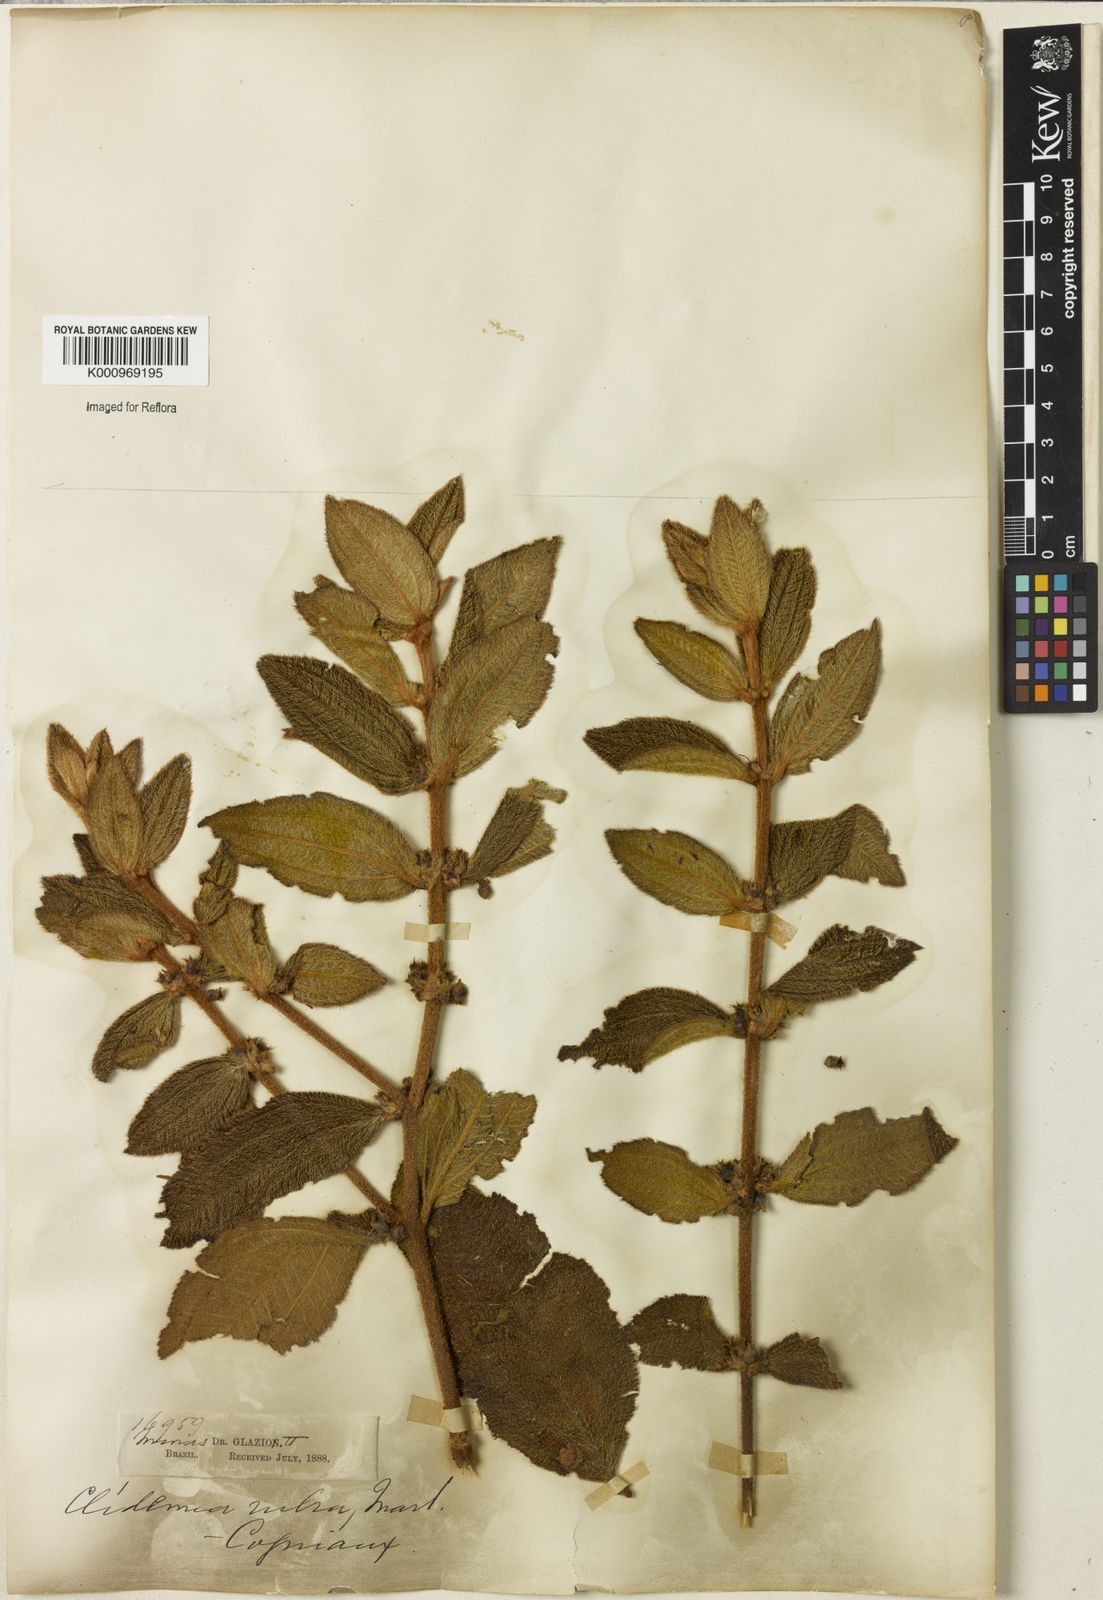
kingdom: Plantae
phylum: Tracheophyta
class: Magnoliopsida
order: Myrtales
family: Melastomataceae
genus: Miconia
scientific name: Miconia rubra
